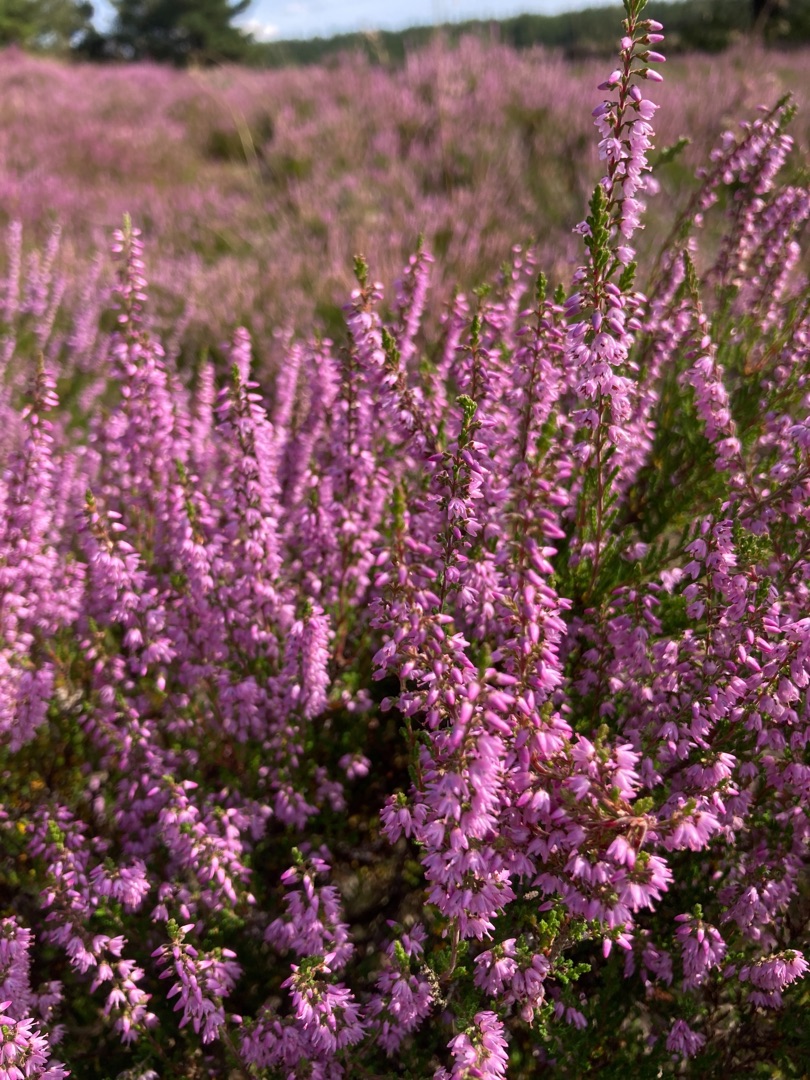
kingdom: Plantae
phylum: Tracheophyta
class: Magnoliopsida
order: Ericales
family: Ericaceae
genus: Calluna
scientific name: Calluna vulgaris
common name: Hedelyng
